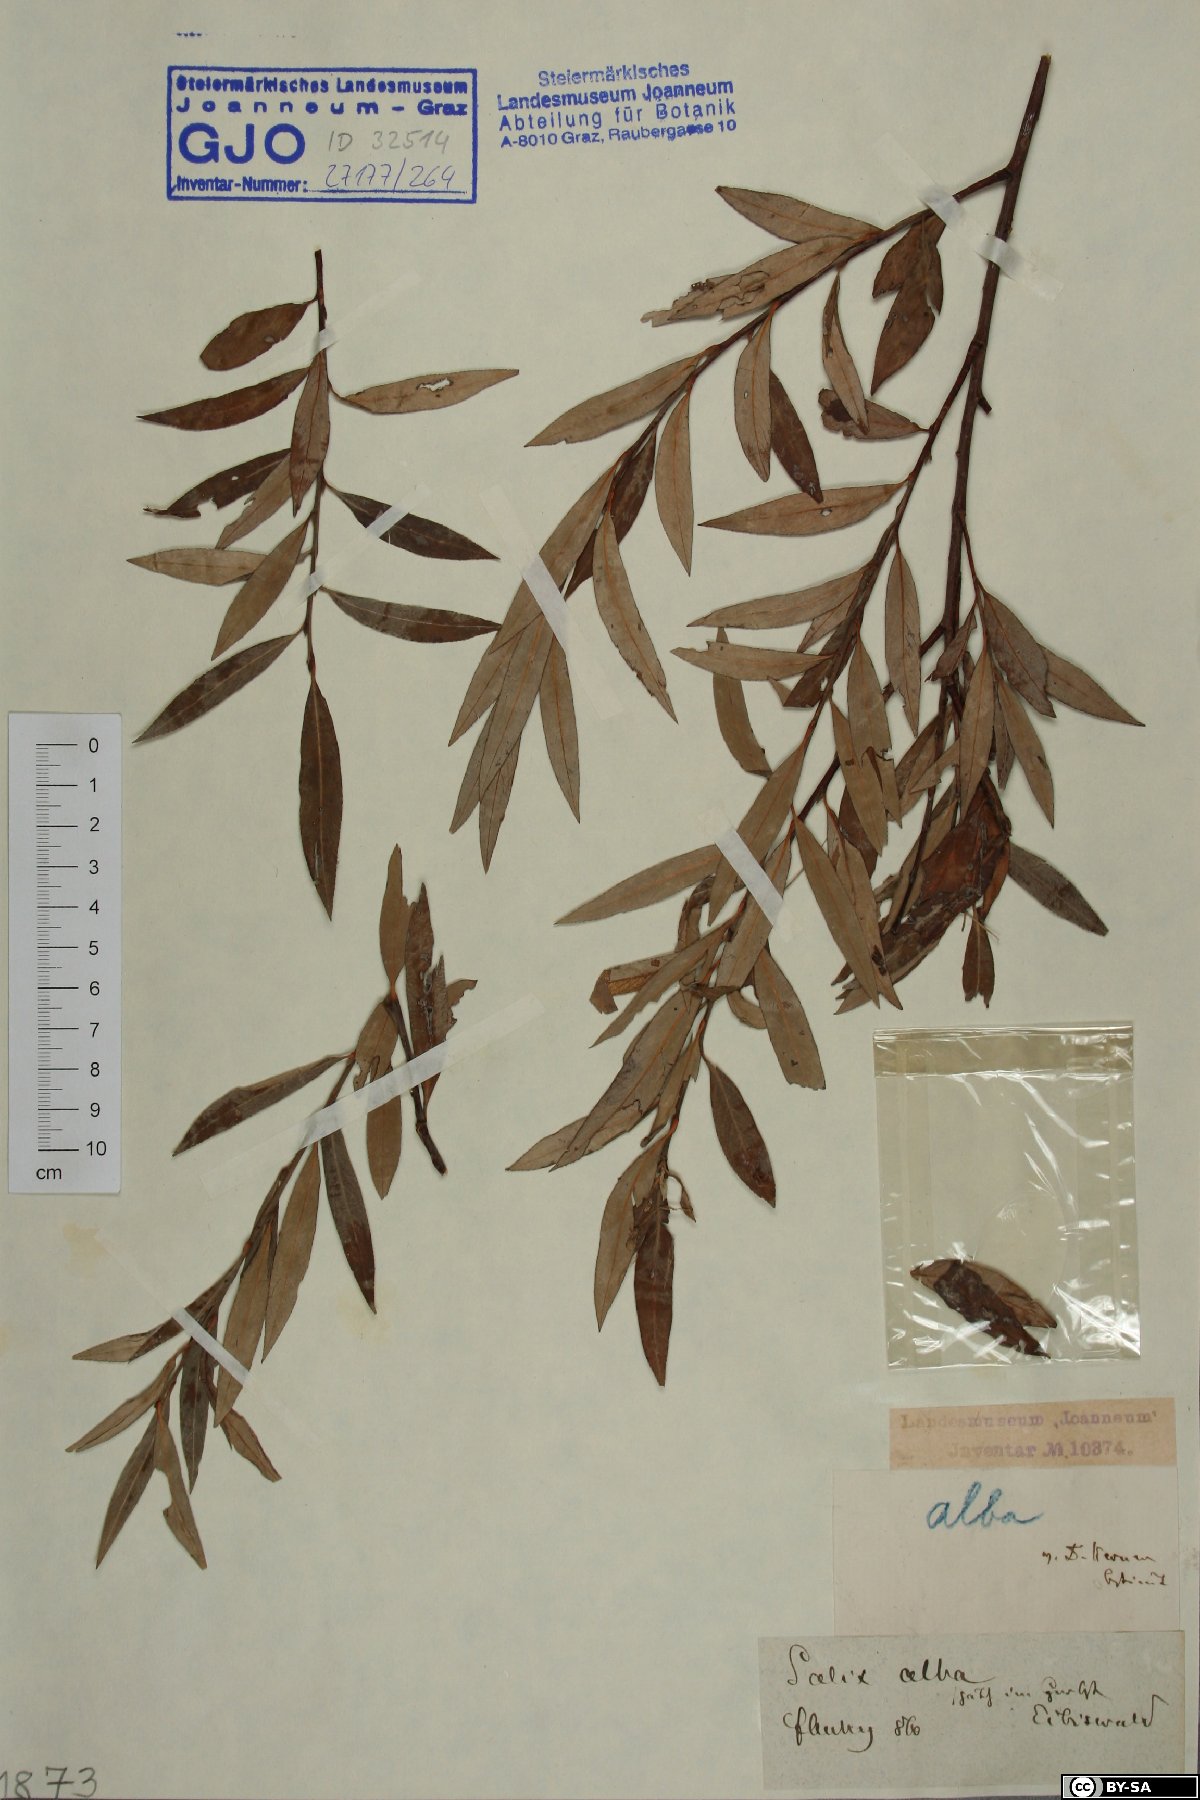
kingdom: Plantae
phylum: Tracheophyta
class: Magnoliopsida
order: Malpighiales
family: Salicaceae
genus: Salix
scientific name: Salix alba
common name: White willow
